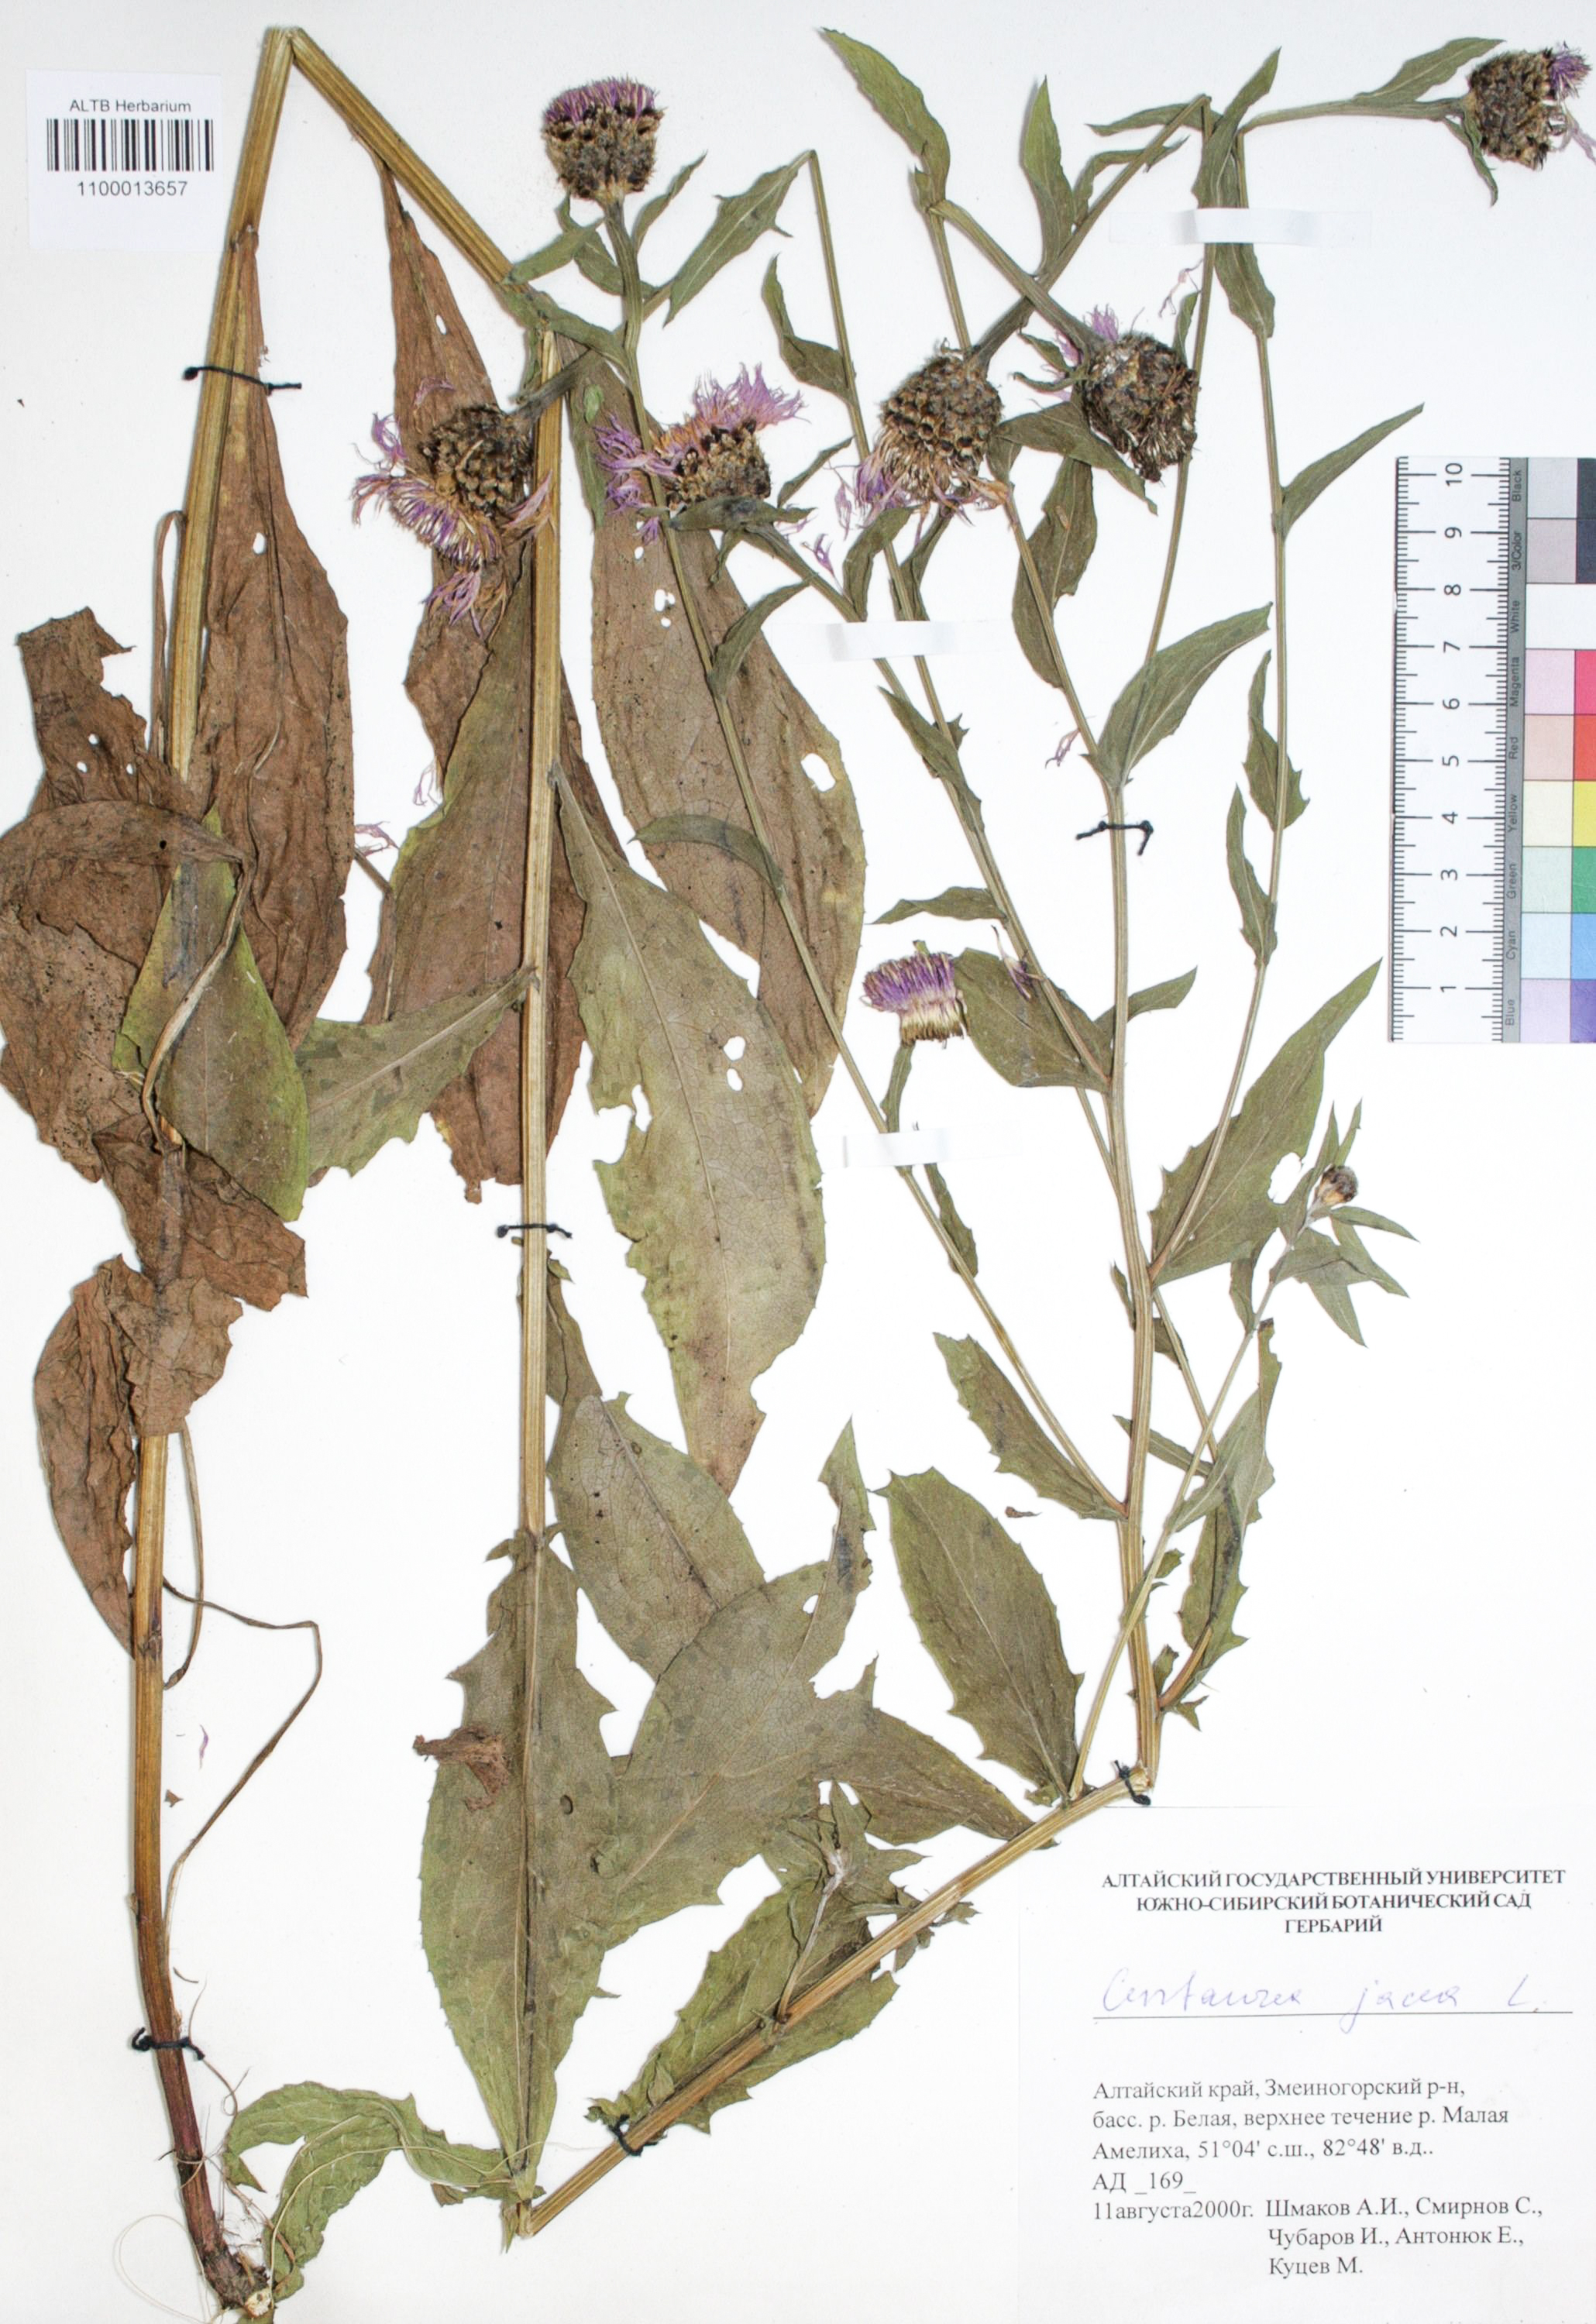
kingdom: Plantae
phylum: Tracheophyta
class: Magnoliopsida
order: Asterales
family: Asteraceae
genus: Centaurea
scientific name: Centaurea jacea
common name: Brown knapweed
